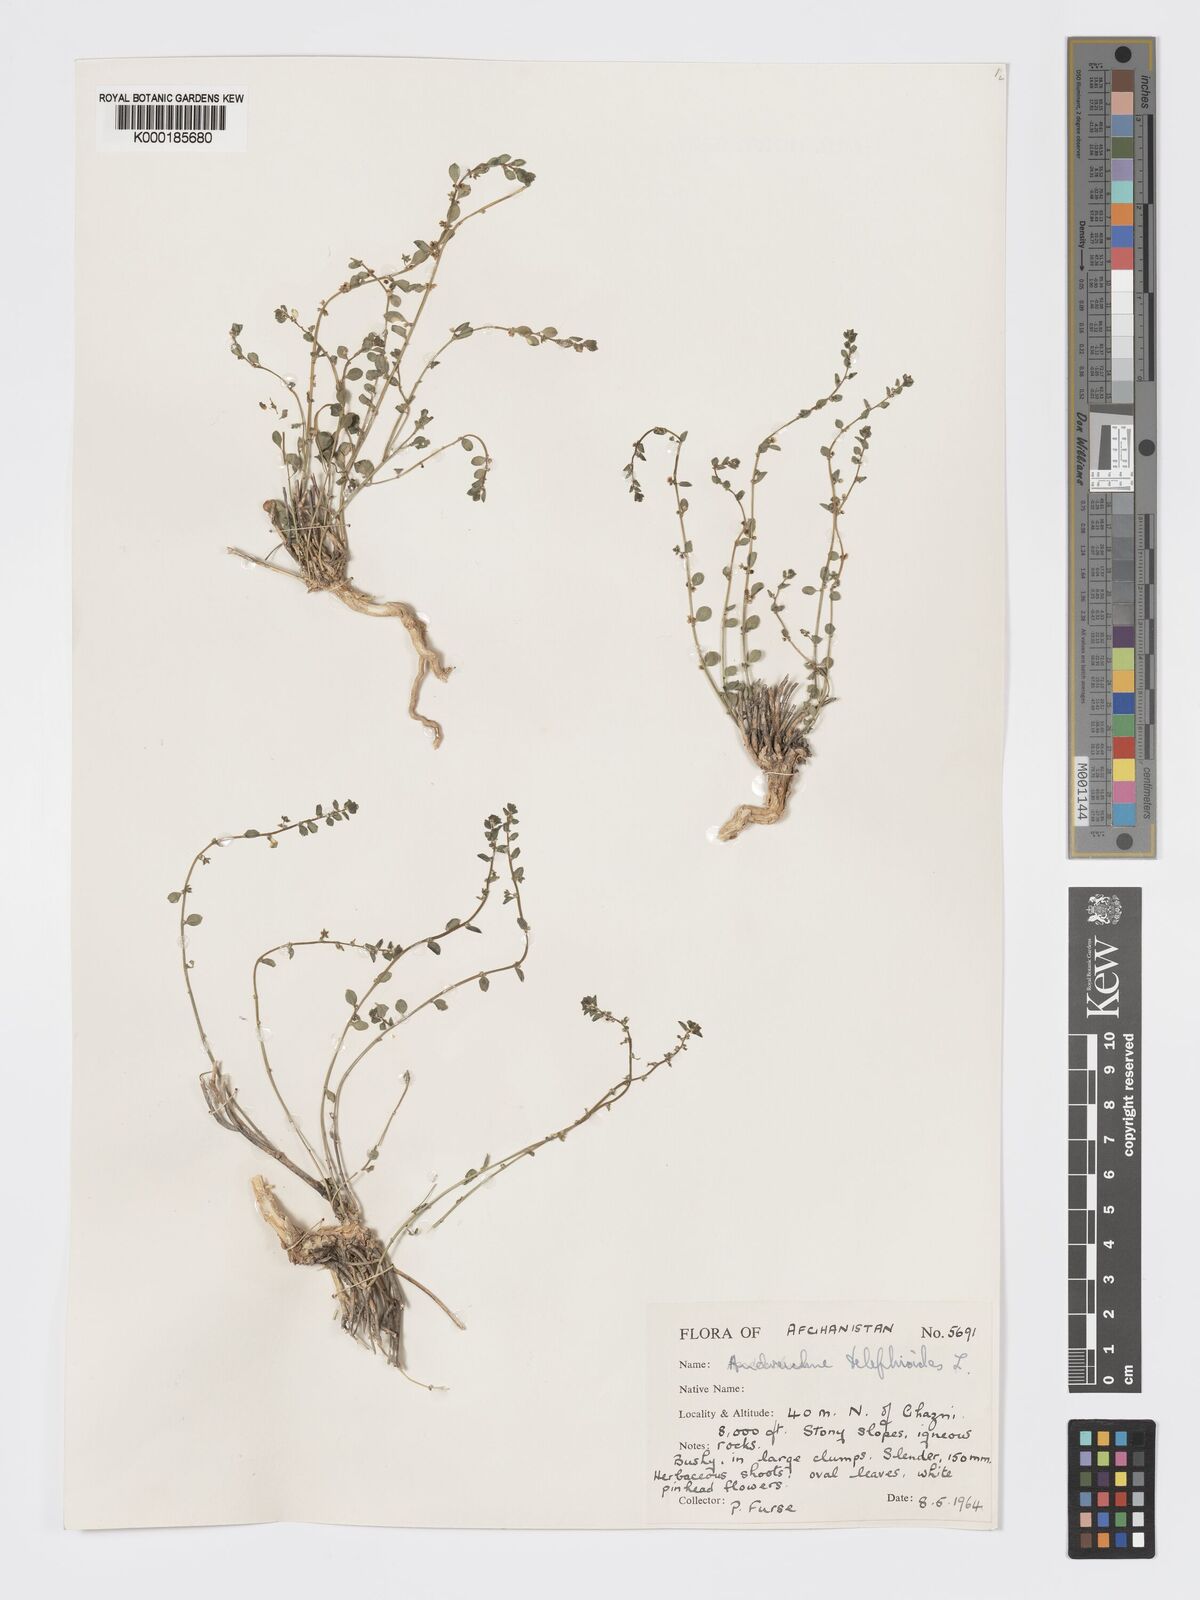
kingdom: Plantae
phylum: Tracheophyta
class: Magnoliopsida
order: Malpighiales
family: Phyllanthaceae
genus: Andrachne
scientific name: Andrachne telephioides
